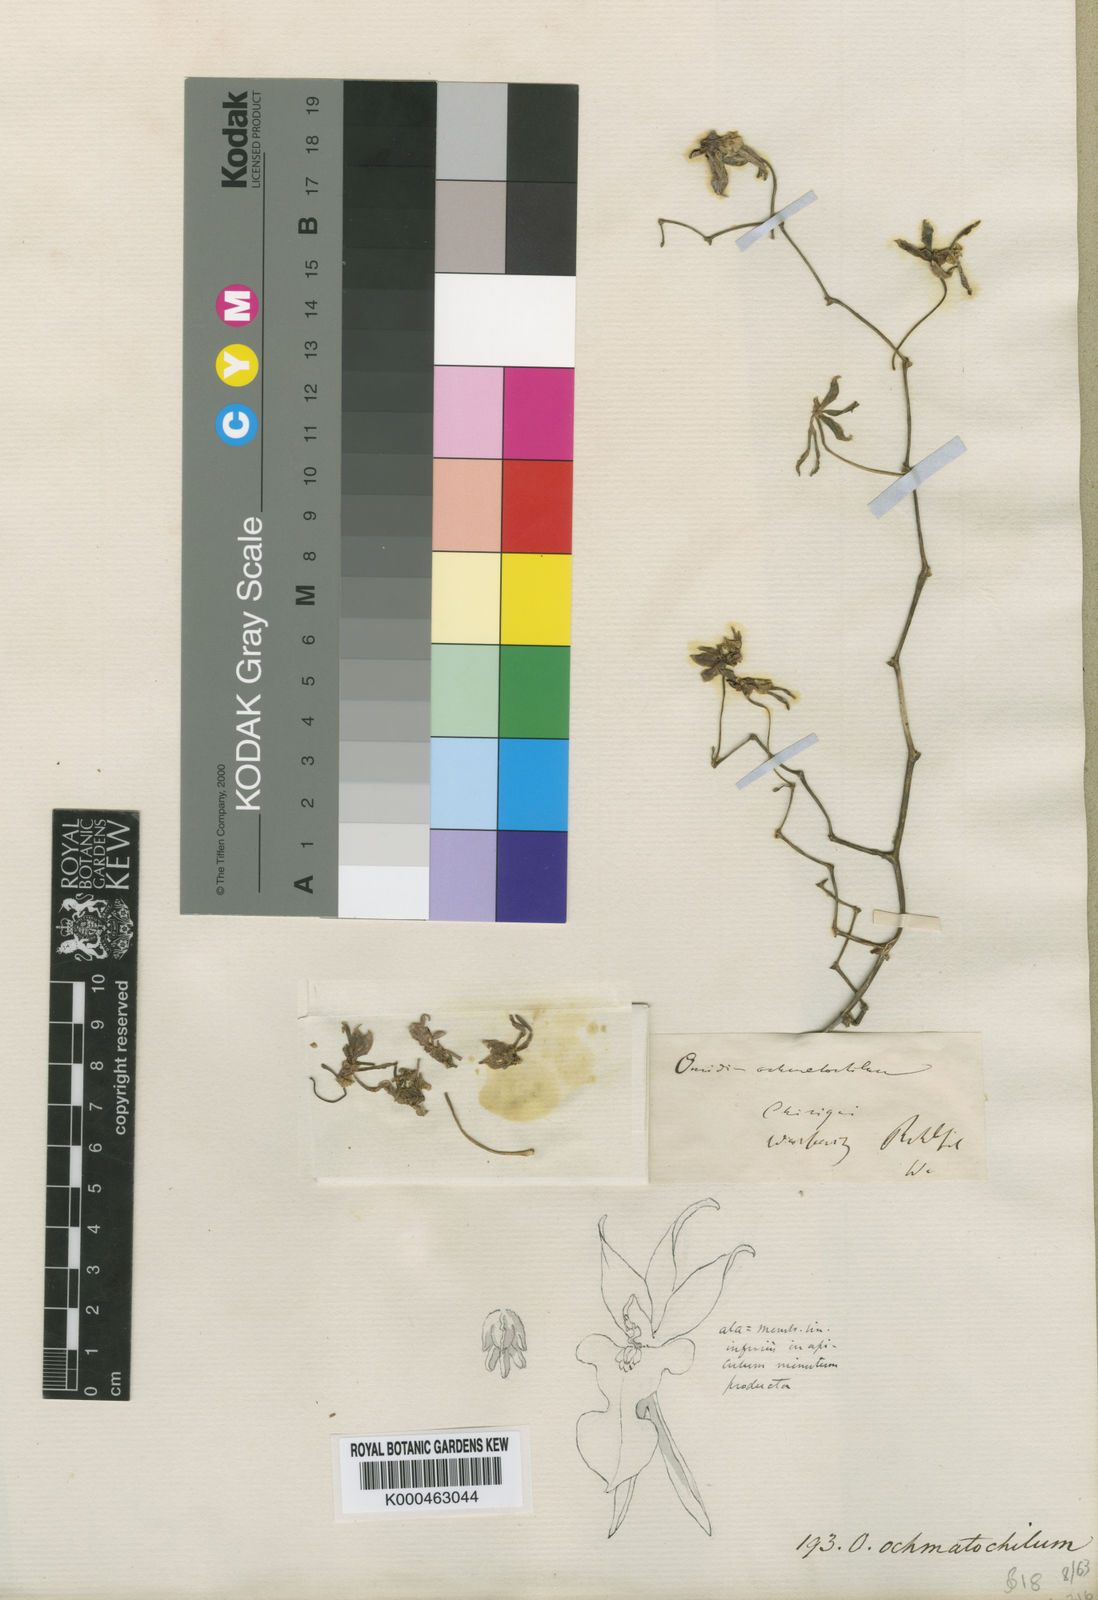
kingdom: Plantae
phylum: Tracheophyta
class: Liliopsida
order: Asparagales
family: Orchidaceae
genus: Cyrtochiloides
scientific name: Cyrtochiloides ochmatochila
